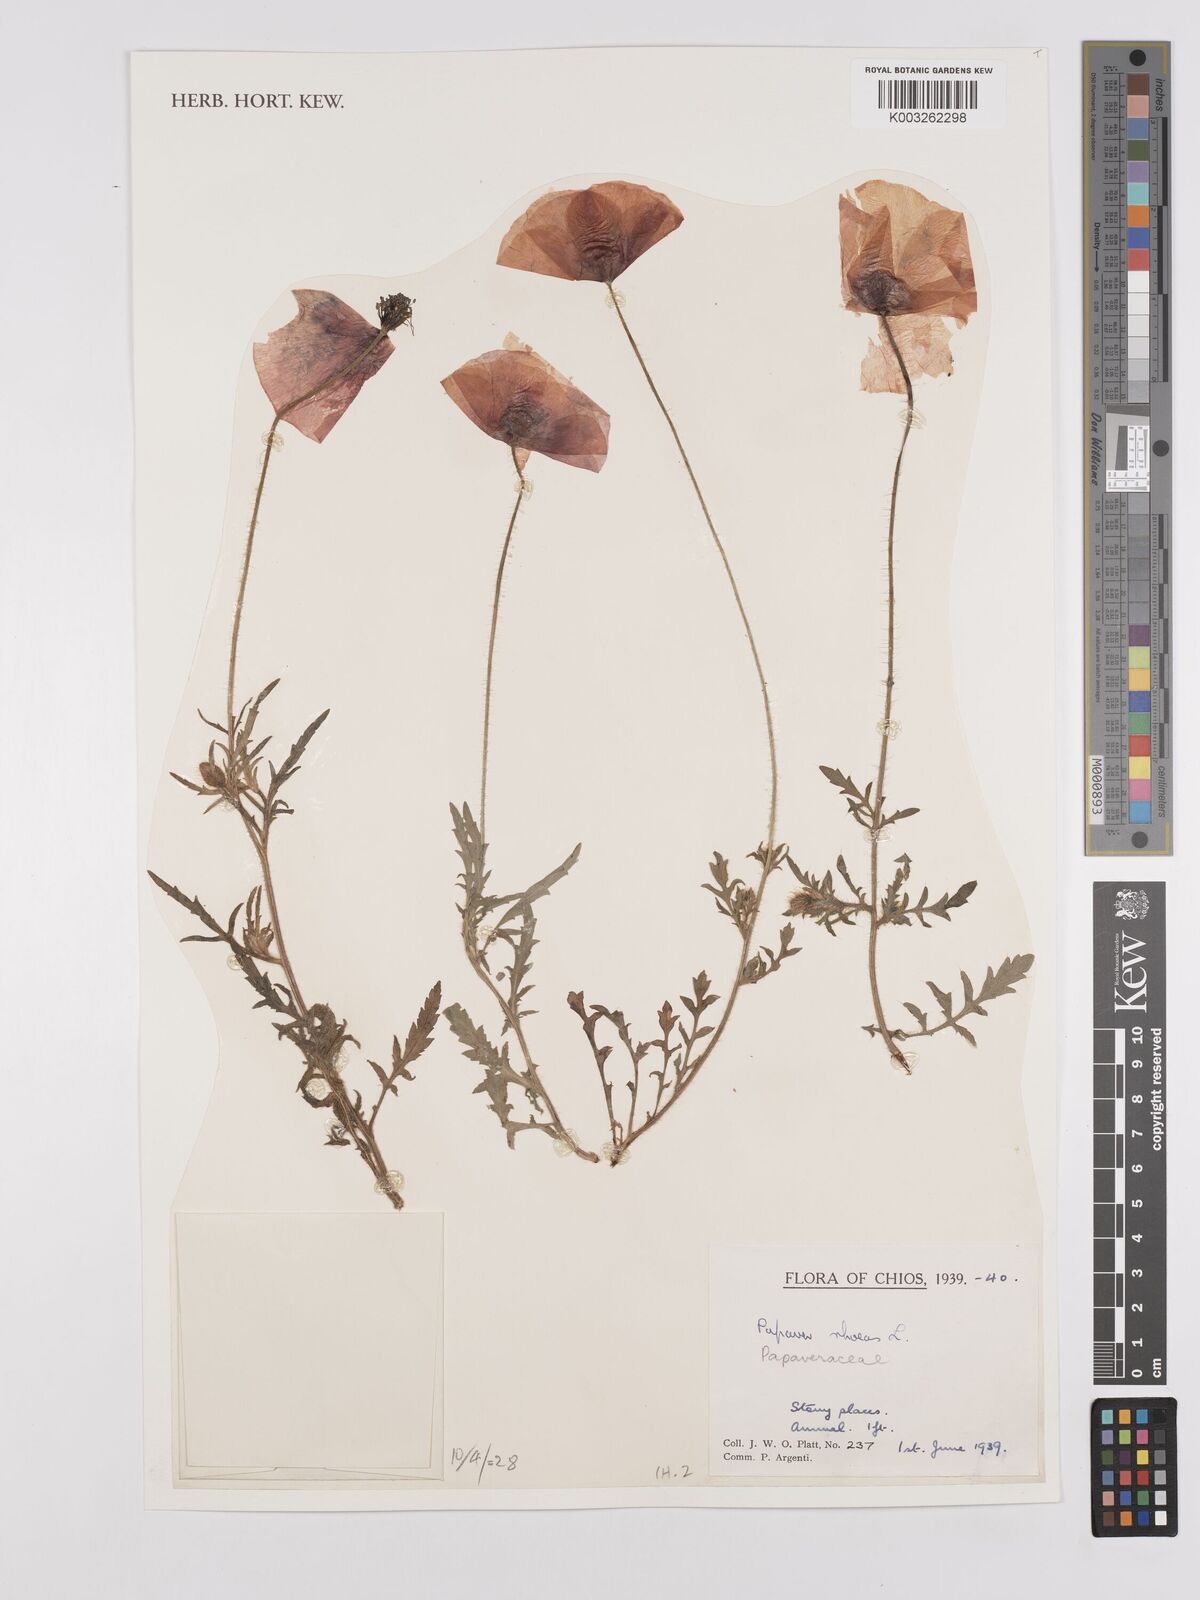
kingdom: Plantae
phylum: Tracheophyta
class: Magnoliopsida
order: Ranunculales
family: Papaveraceae
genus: Papaver
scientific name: Papaver rhoeas
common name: Corn poppy
